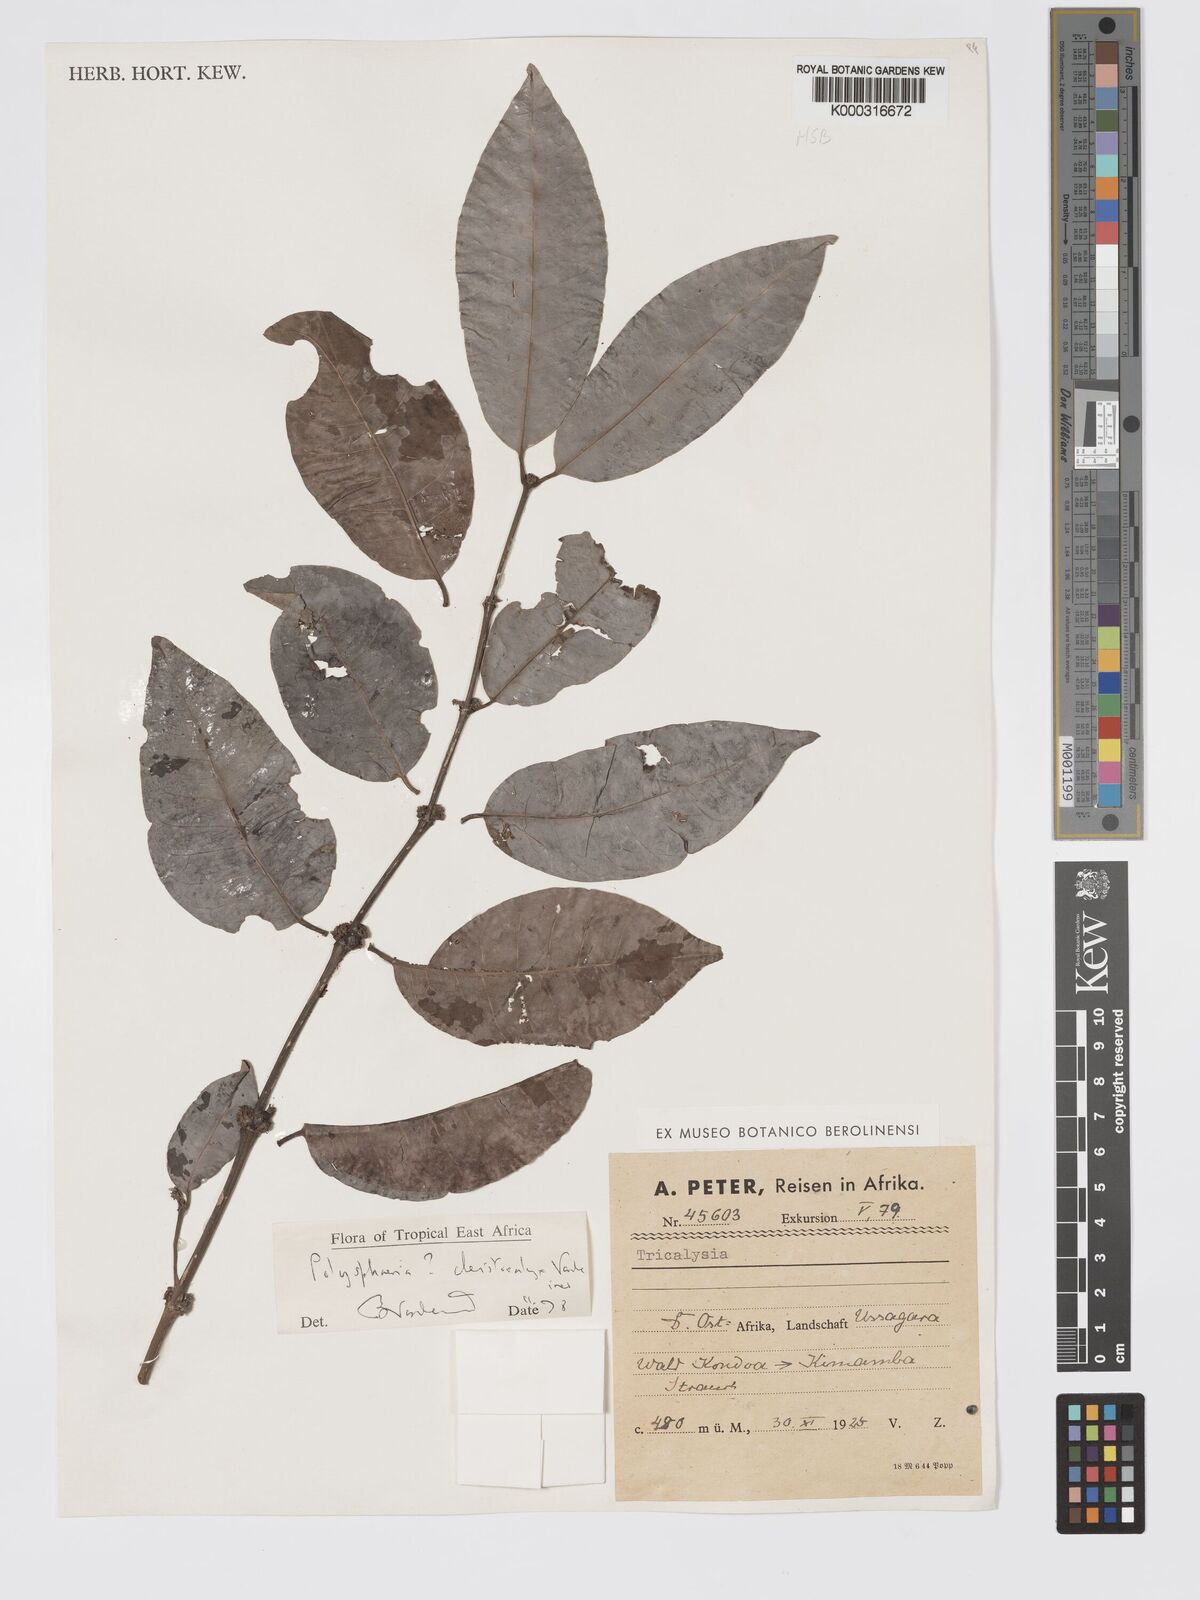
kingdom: Plantae
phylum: Tracheophyta
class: Magnoliopsida
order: Gentianales
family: Rubiaceae
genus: Polysphaeria
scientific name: Polysphaeria cleistocalyx
